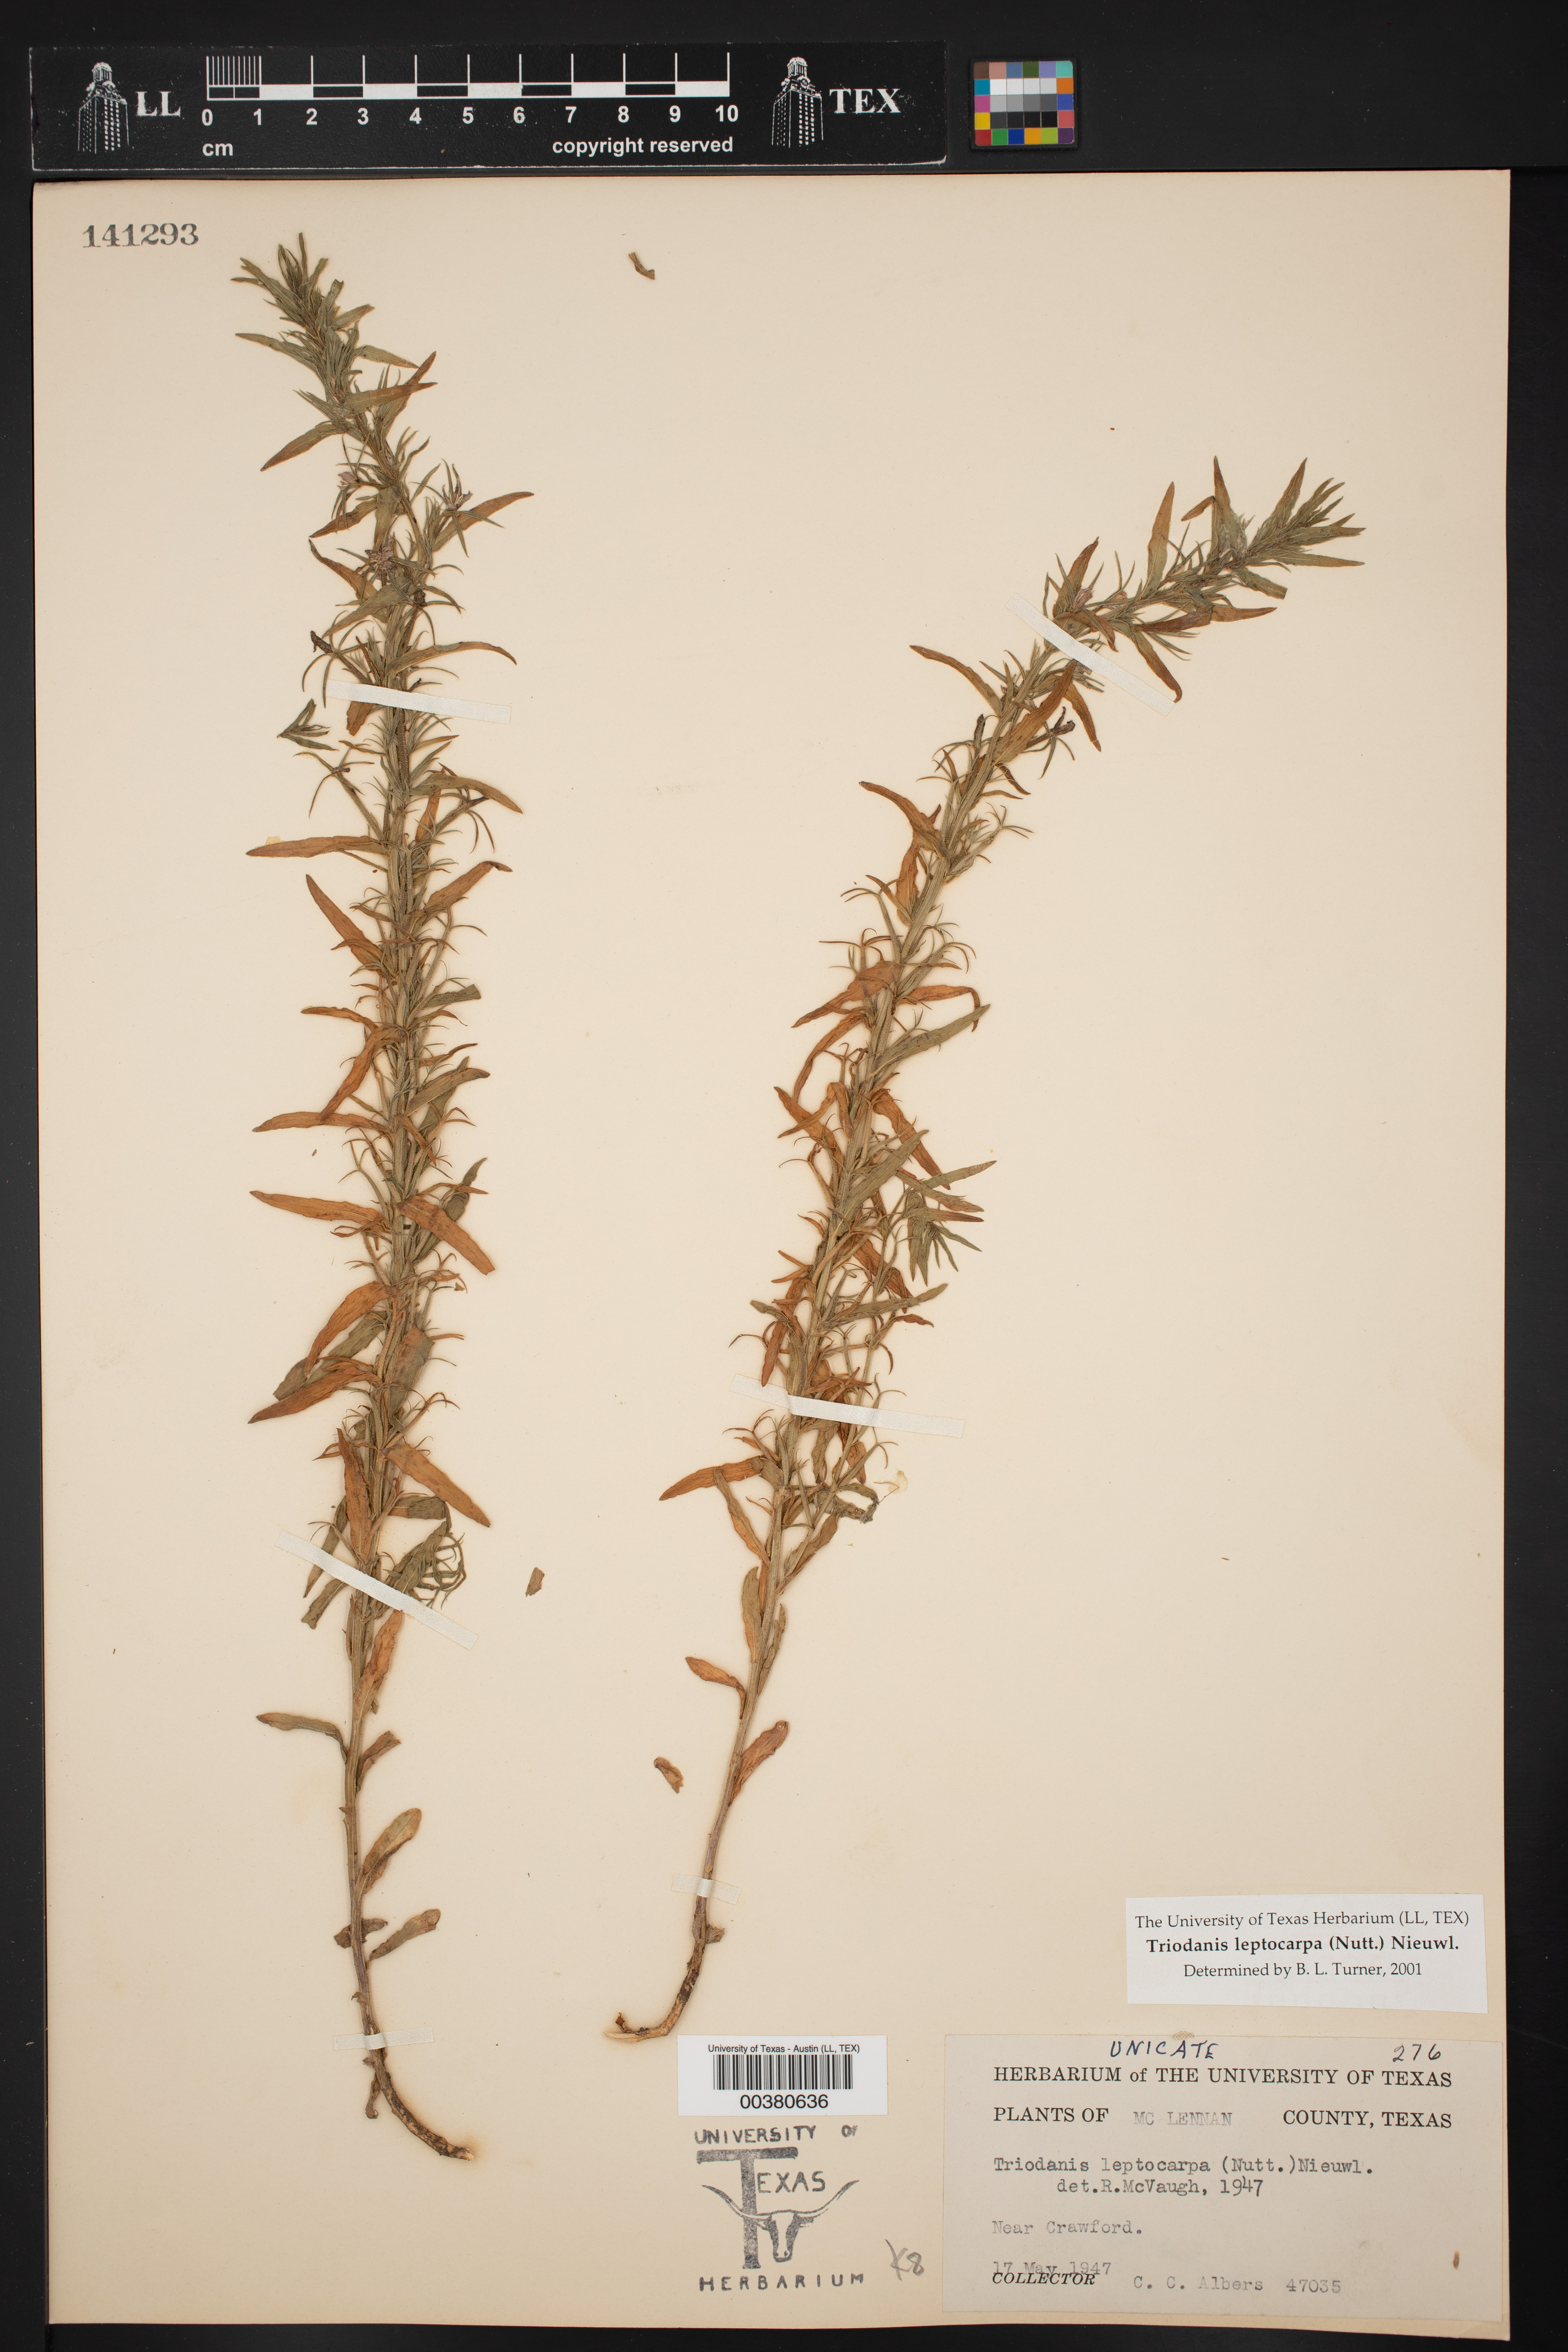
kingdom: Plantae
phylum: Tracheophyta
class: Magnoliopsida
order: Asterales
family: Campanulaceae
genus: Triodanis
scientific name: Triodanis leptocarpa
